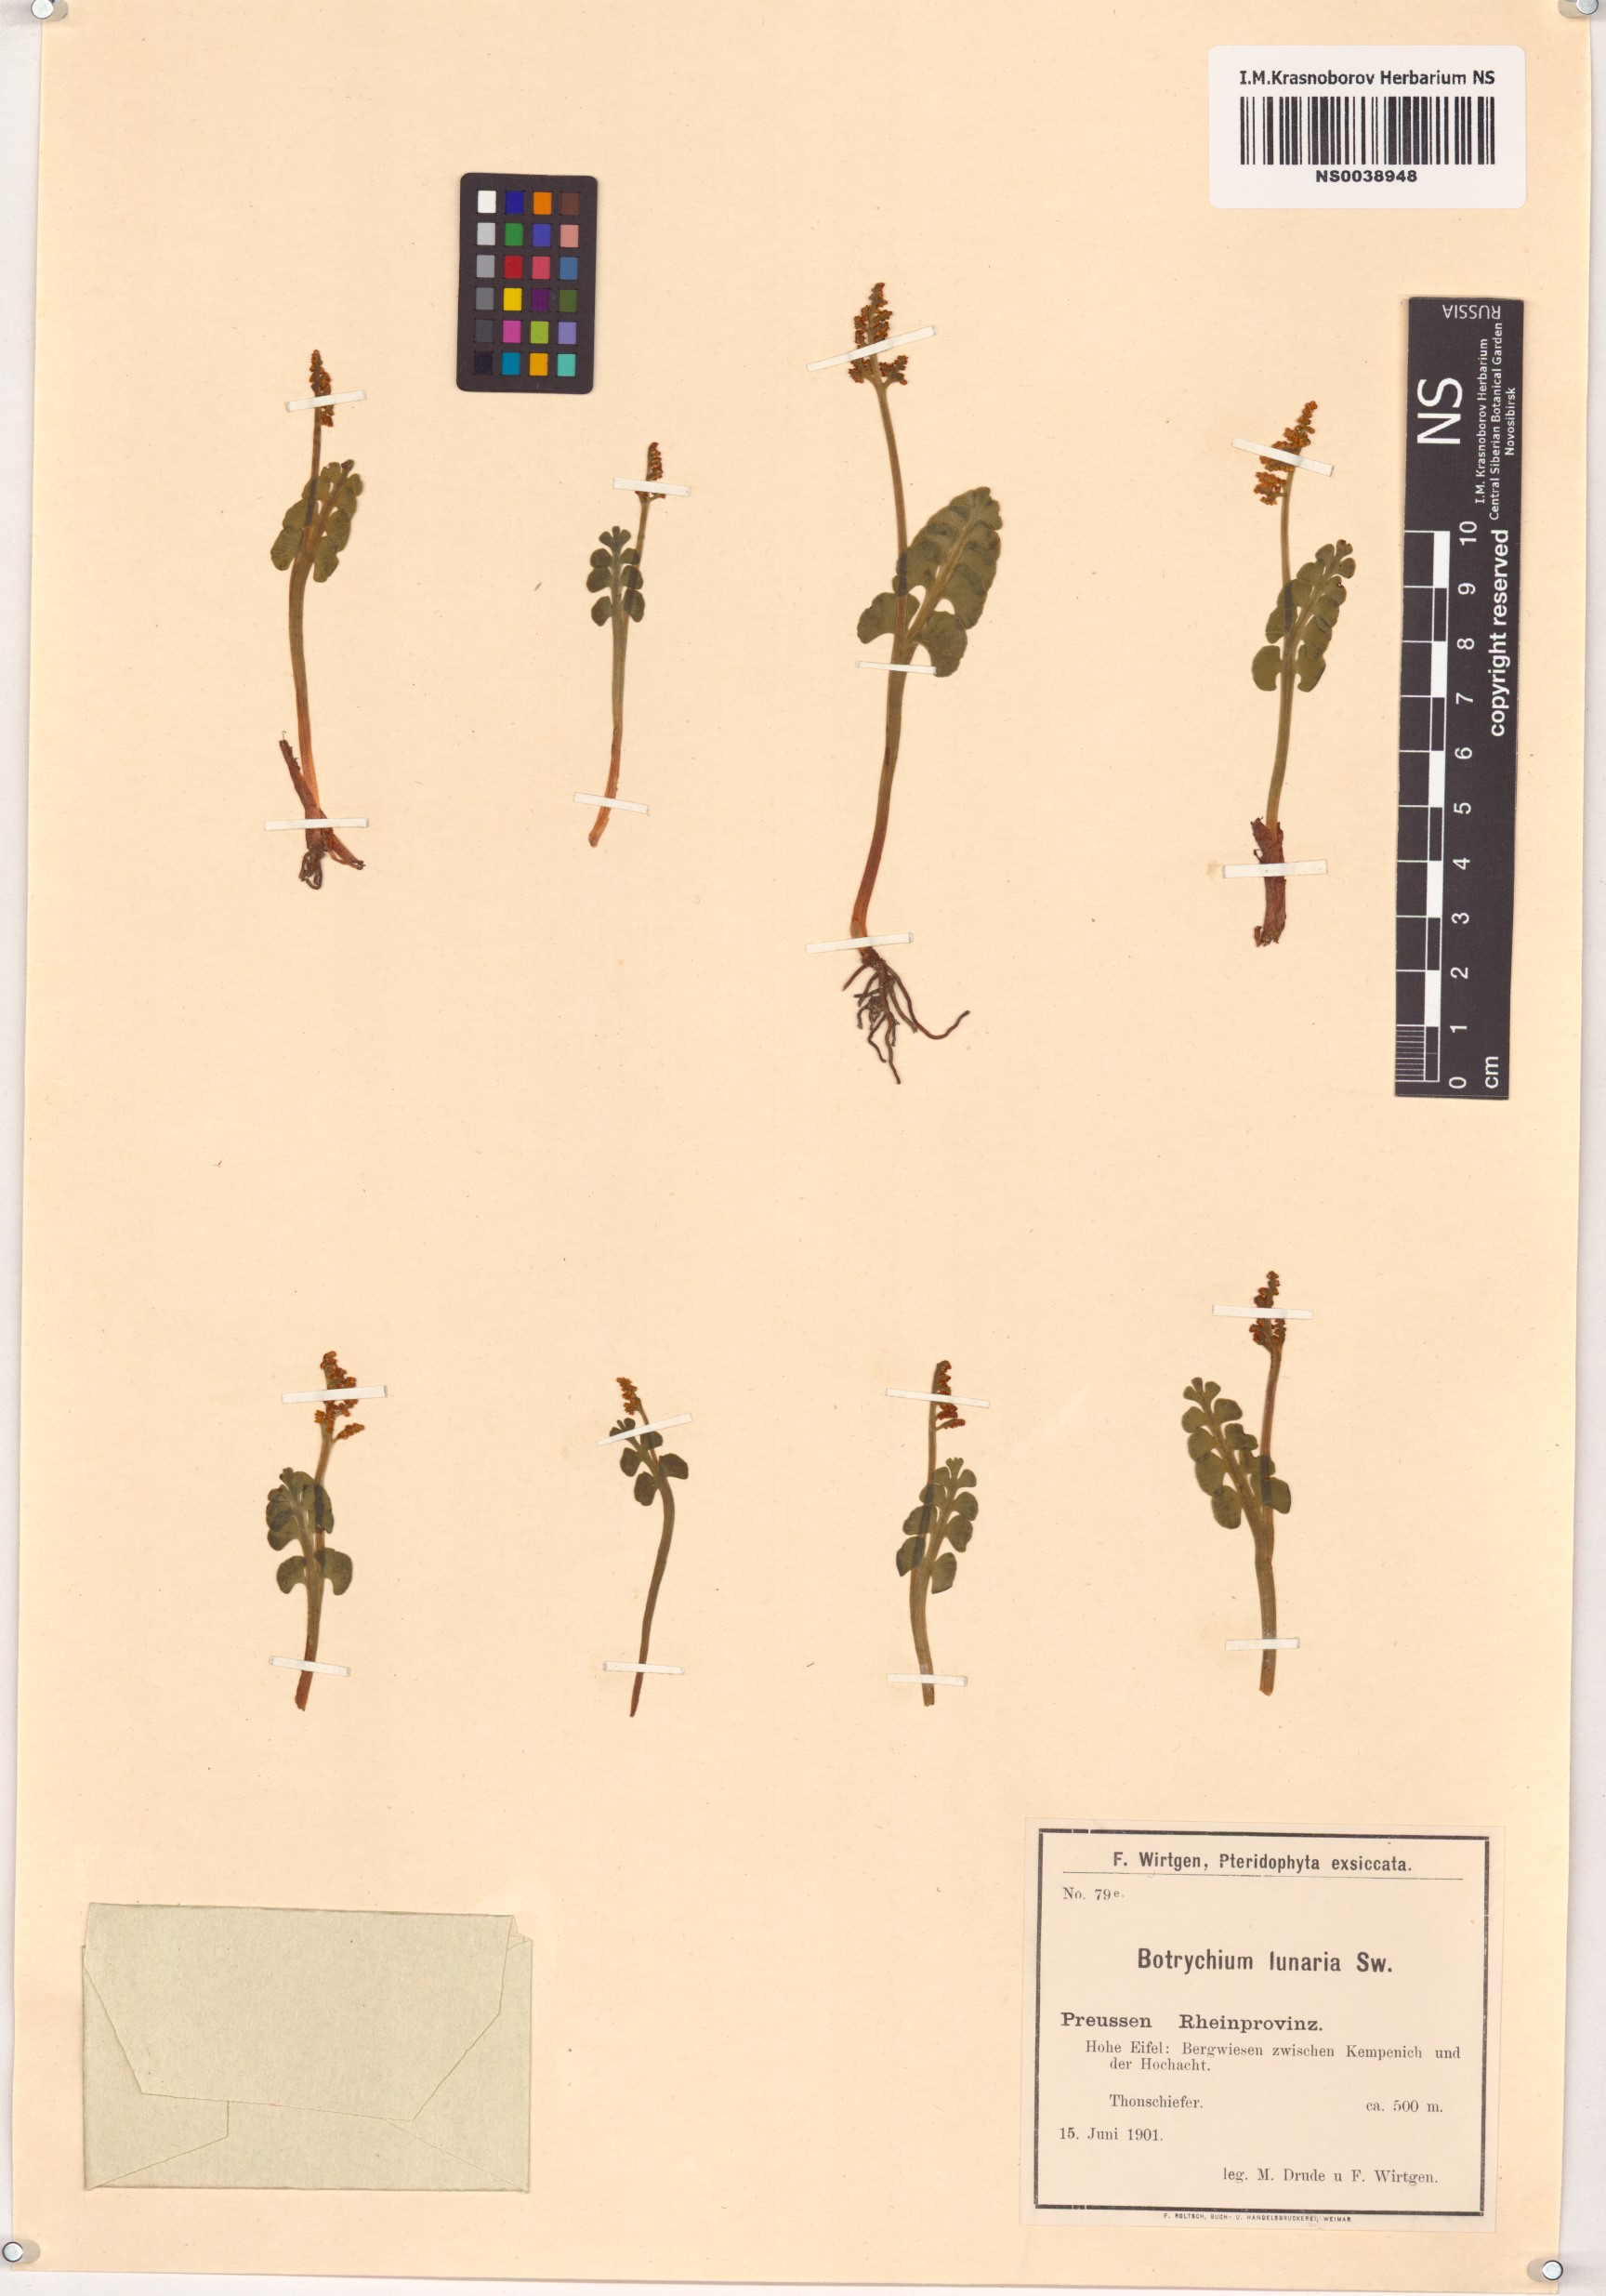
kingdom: Plantae
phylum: Tracheophyta
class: Polypodiopsida
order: Ophioglossales
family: Ophioglossaceae
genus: Botrychium
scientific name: Botrychium lunaria
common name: Moonwort
